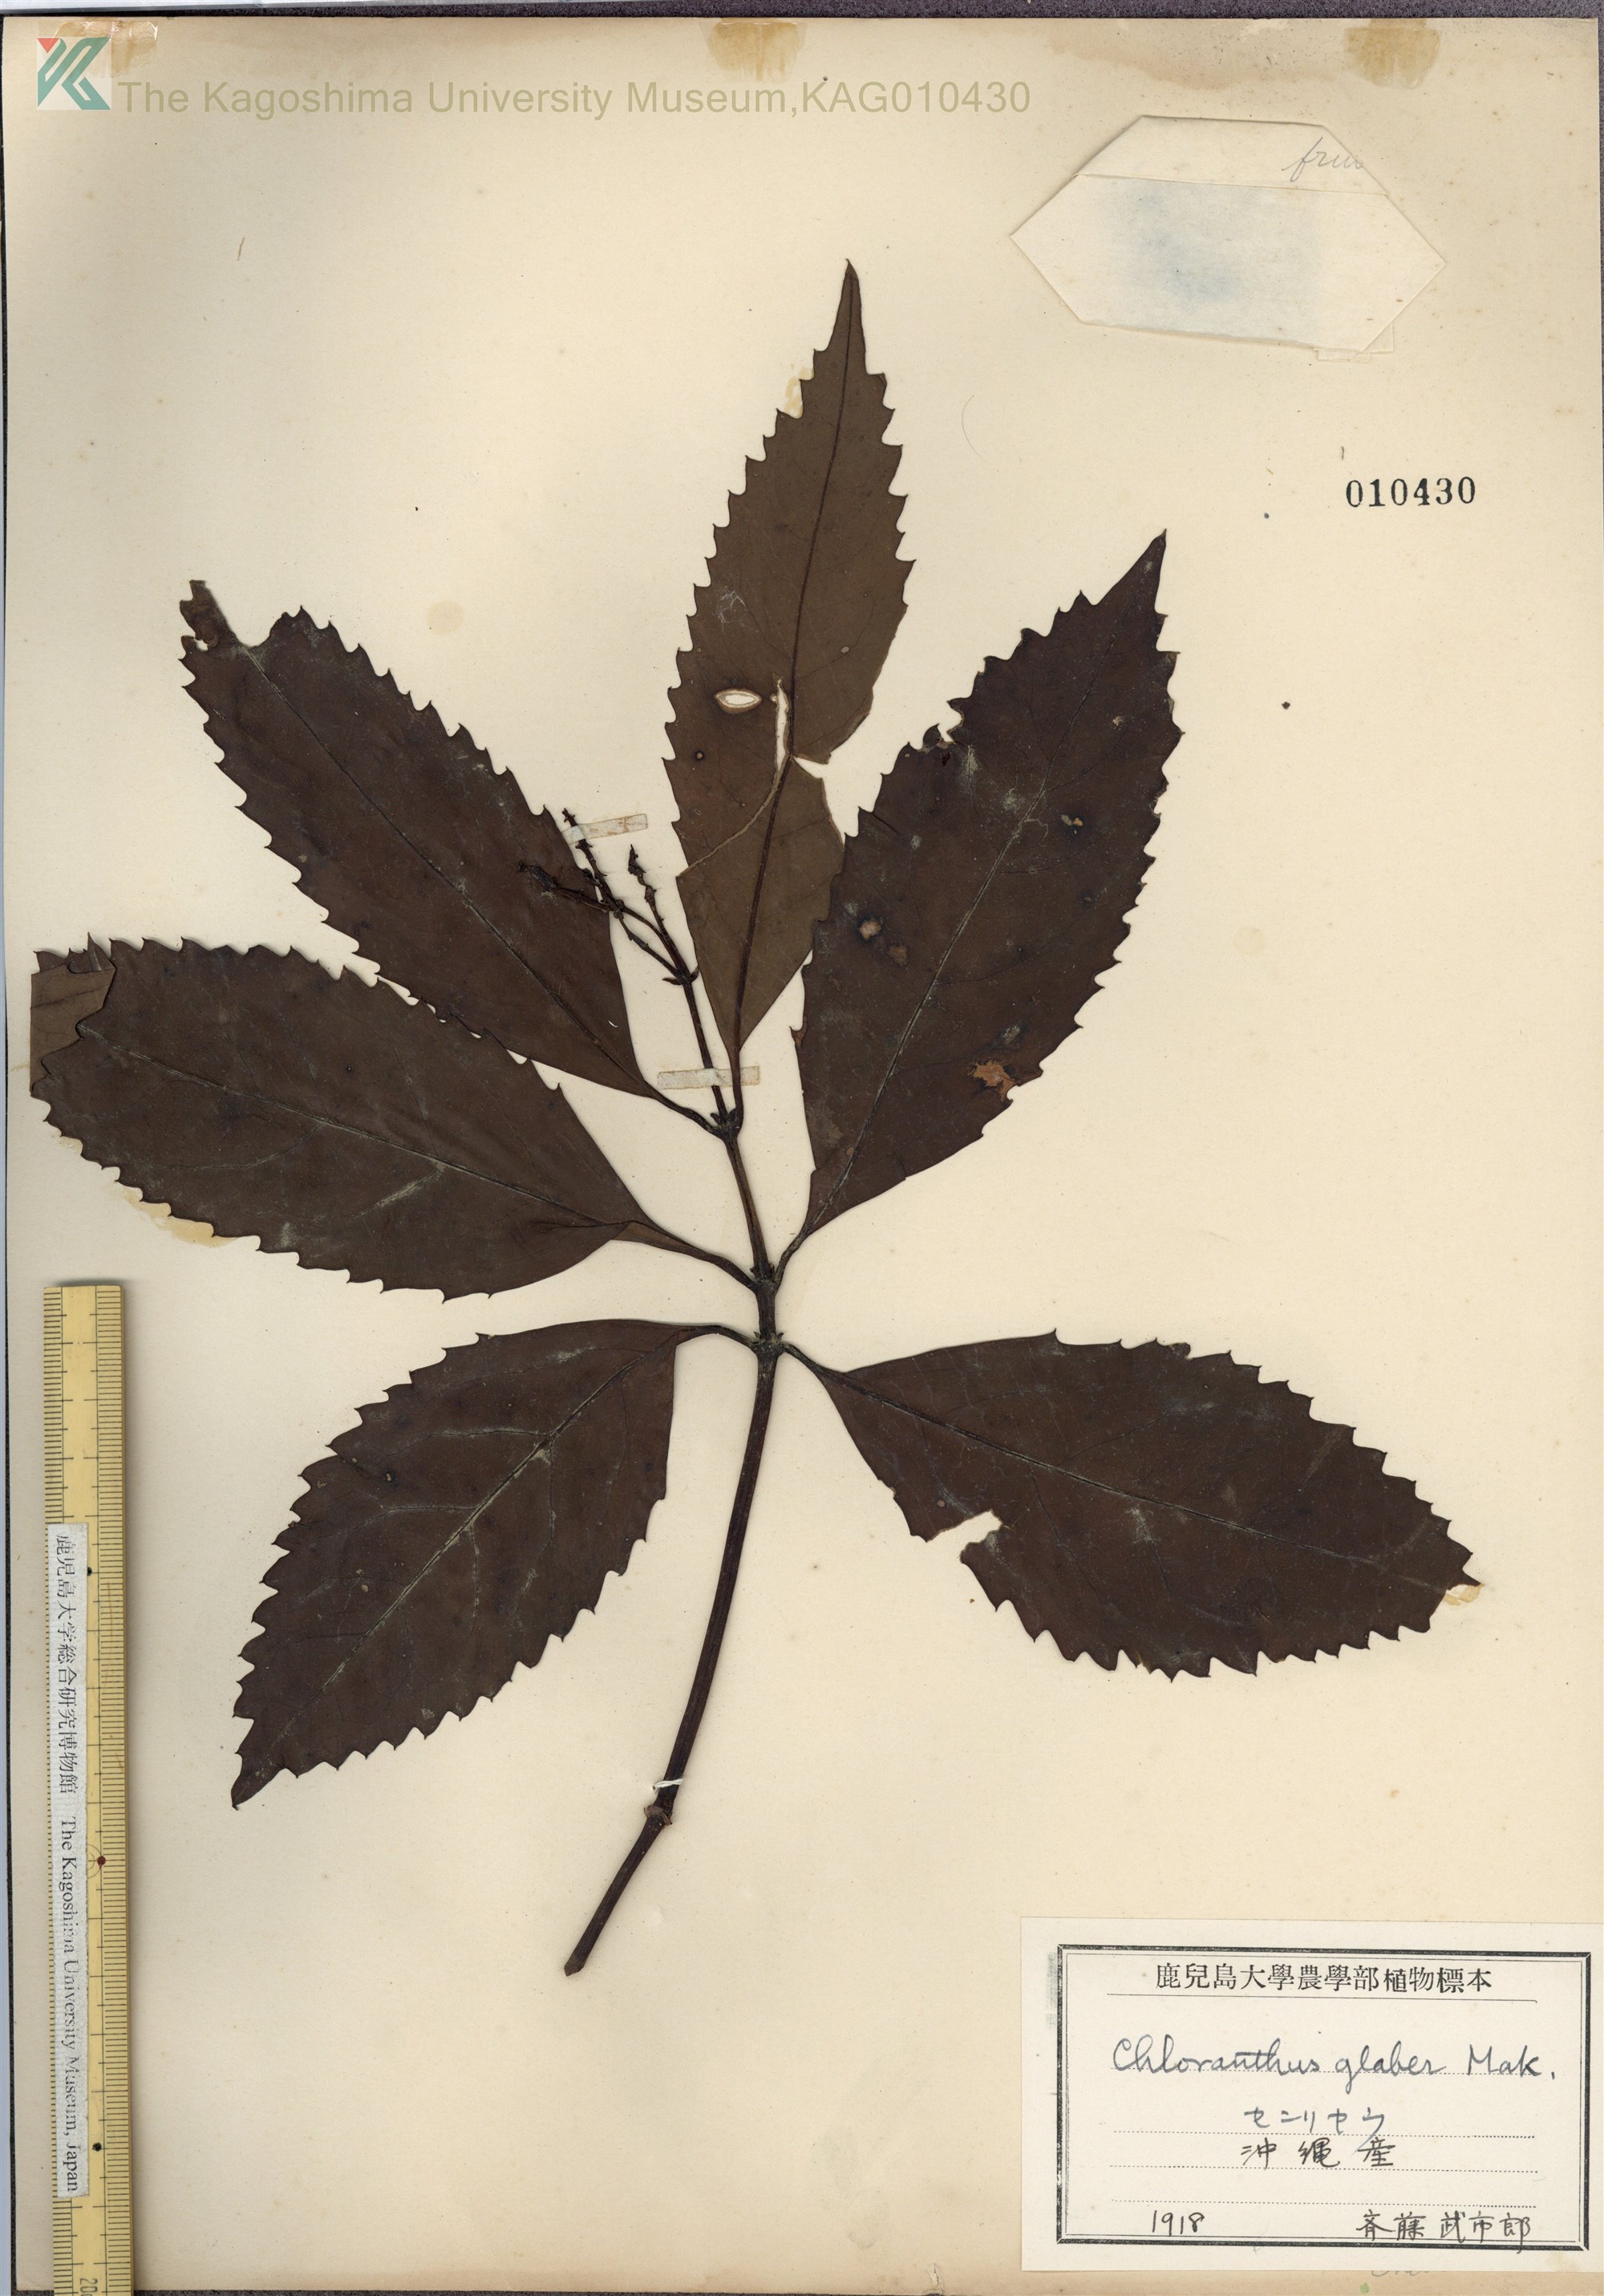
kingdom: Plantae
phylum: Tracheophyta
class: Magnoliopsida
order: Chloranthales
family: Chloranthaceae
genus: Sarcandra
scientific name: Sarcandra glabra
